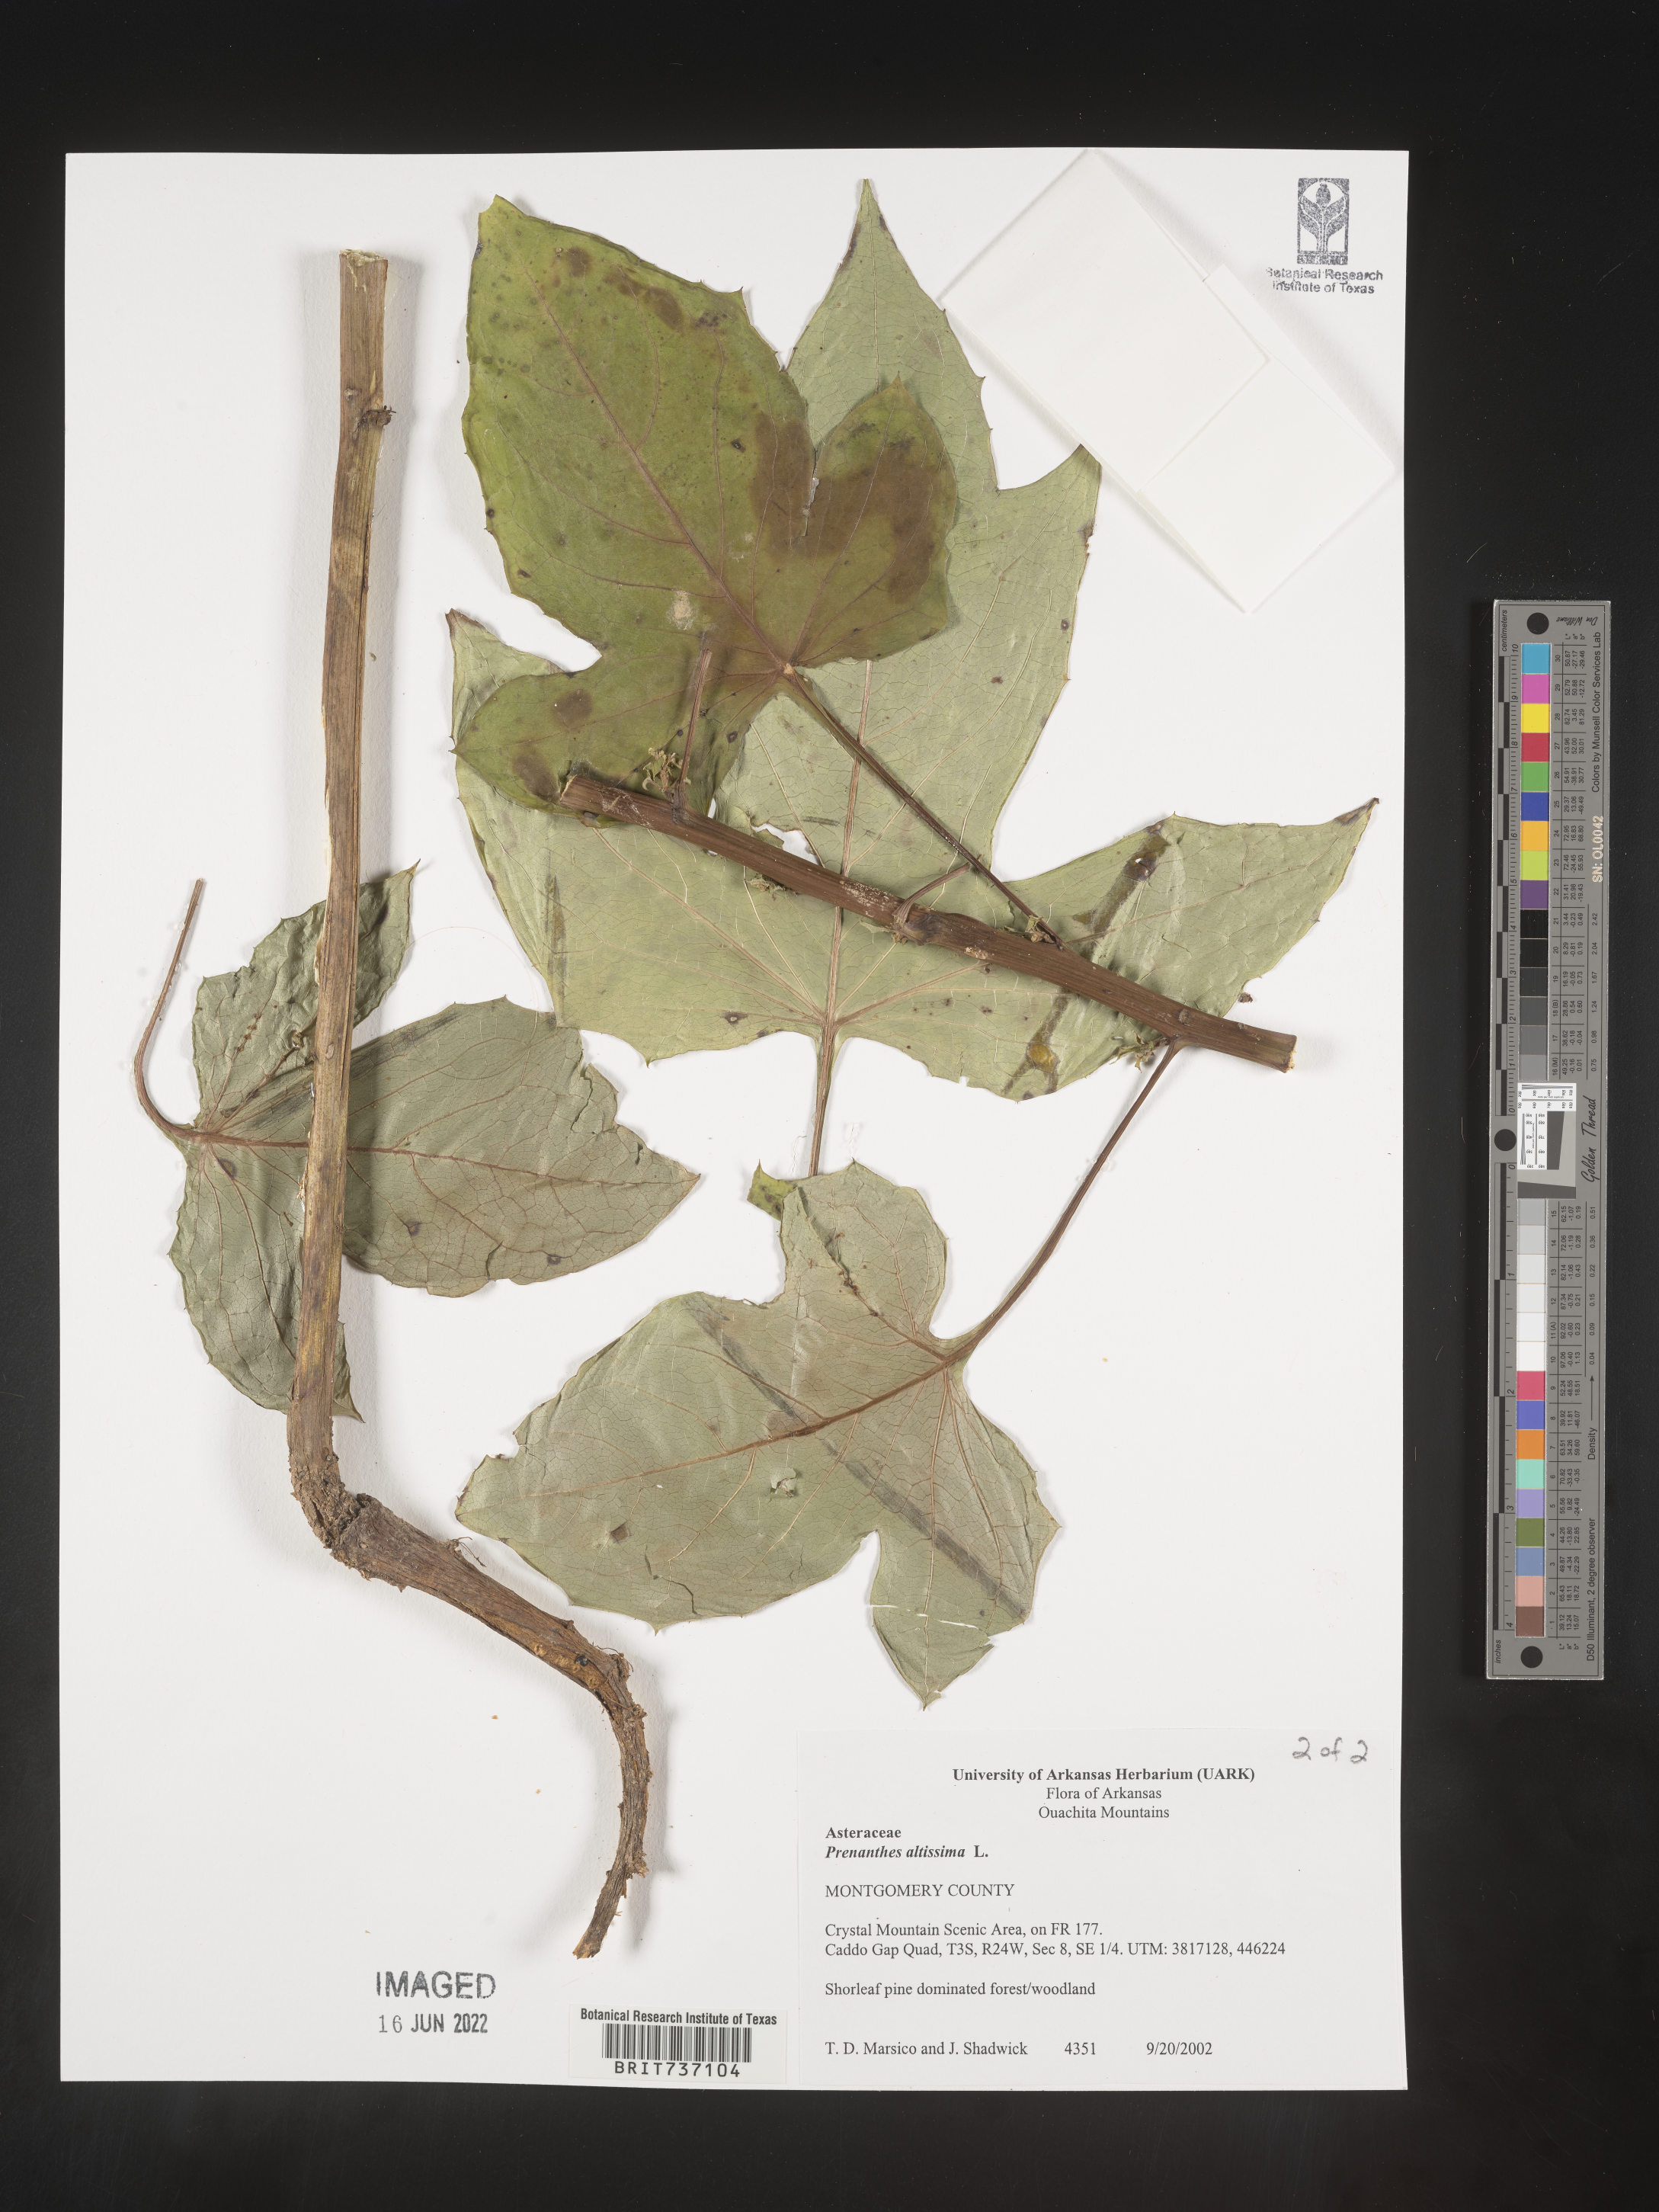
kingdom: Plantae
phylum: Tracheophyta
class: Magnoliopsida
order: Asterales
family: Asteraceae
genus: Lactuca
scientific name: Lactuca quercina
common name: Wild lettuce
